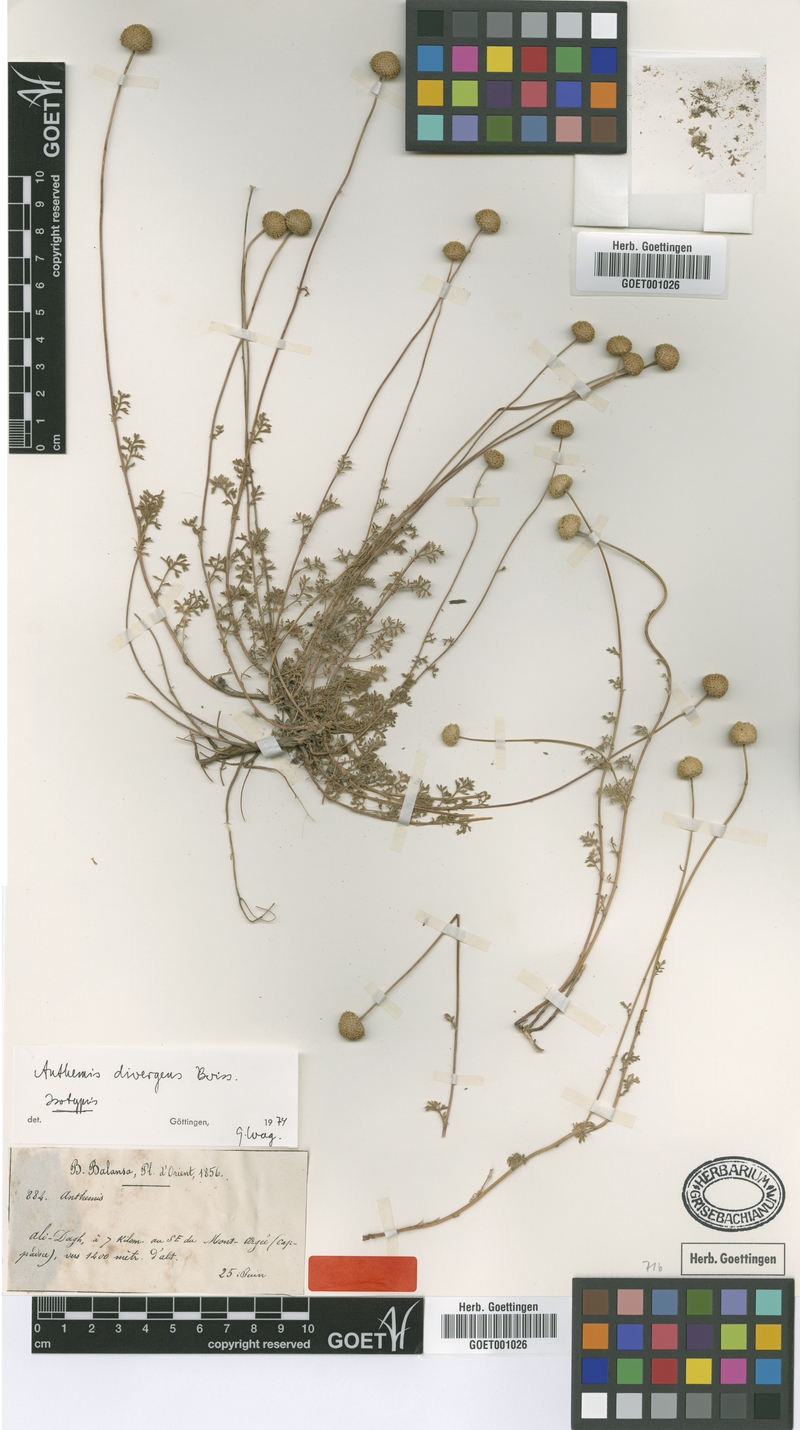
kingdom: Plantae
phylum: Tracheophyta
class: Magnoliopsida
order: Asterales
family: Asteraceae
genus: Anthemis
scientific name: Anthemis cretica
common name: Mountain dog-daisy
